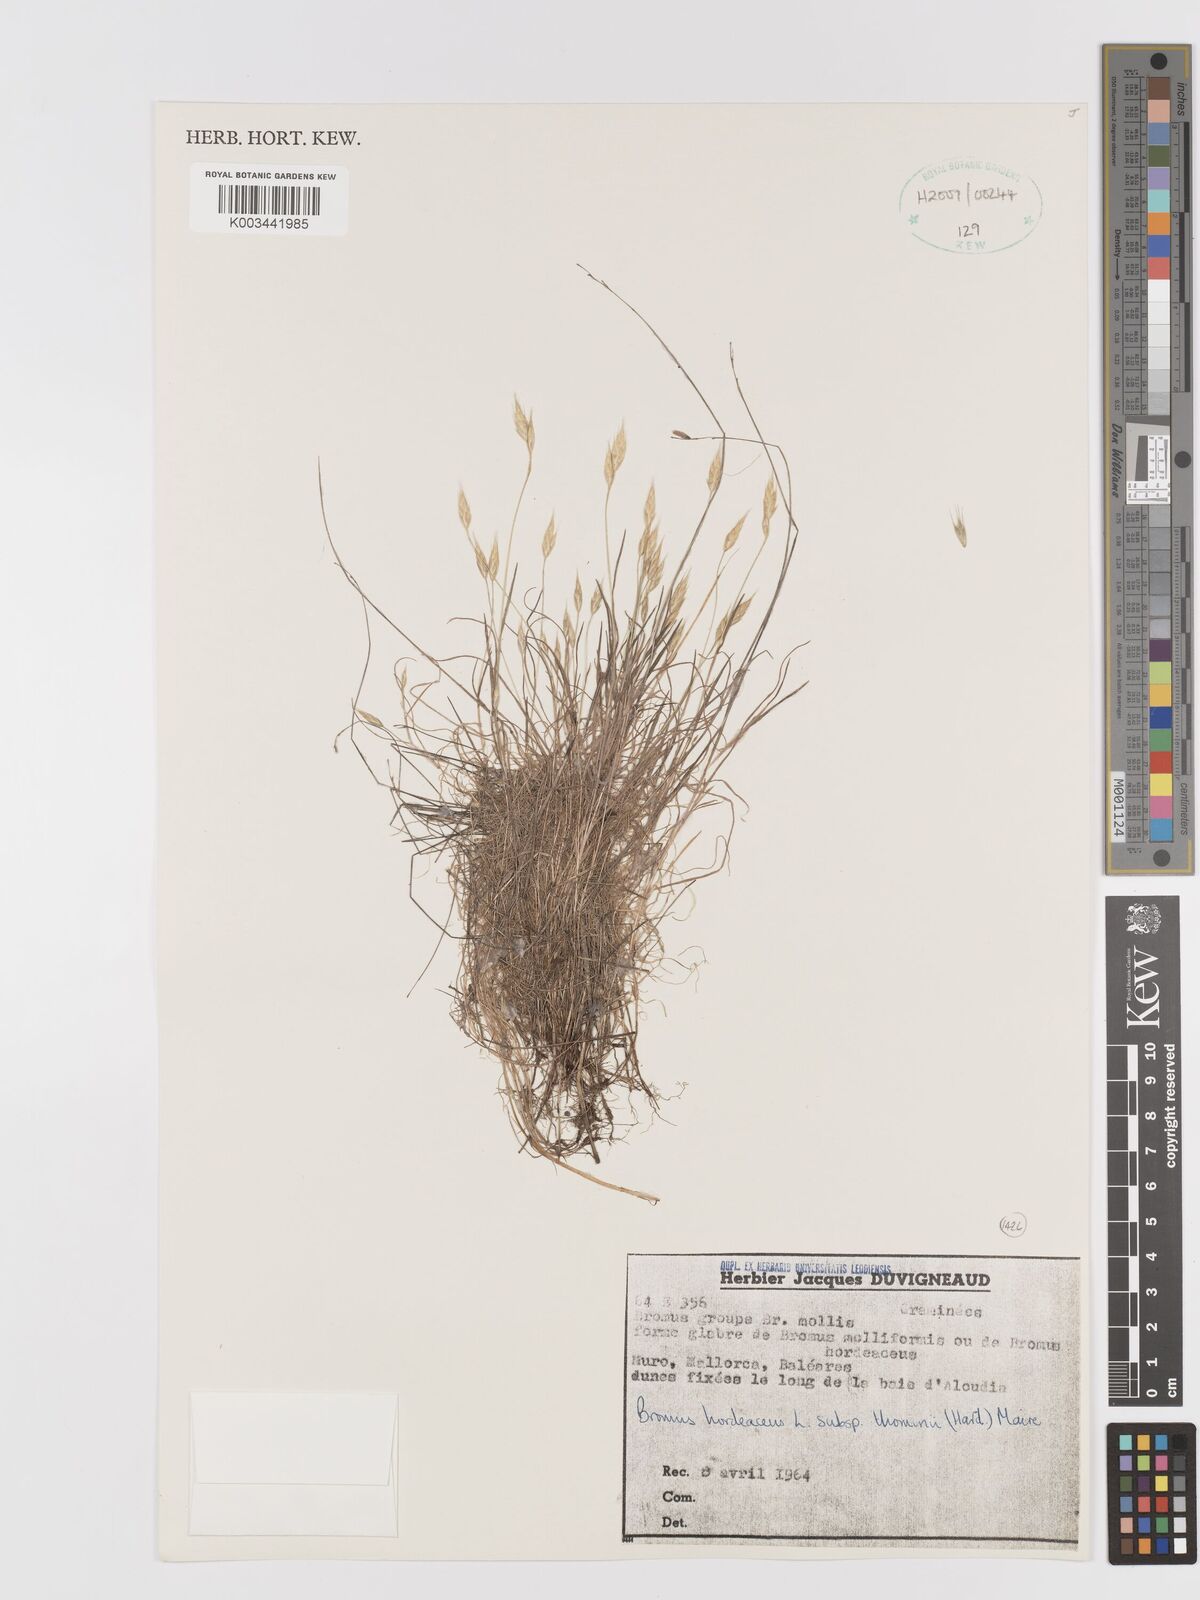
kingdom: Plantae
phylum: Tracheophyta
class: Liliopsida
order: Poales
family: Poaceae
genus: Bromus
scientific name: Bromus hordeaceus
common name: Soft brome
